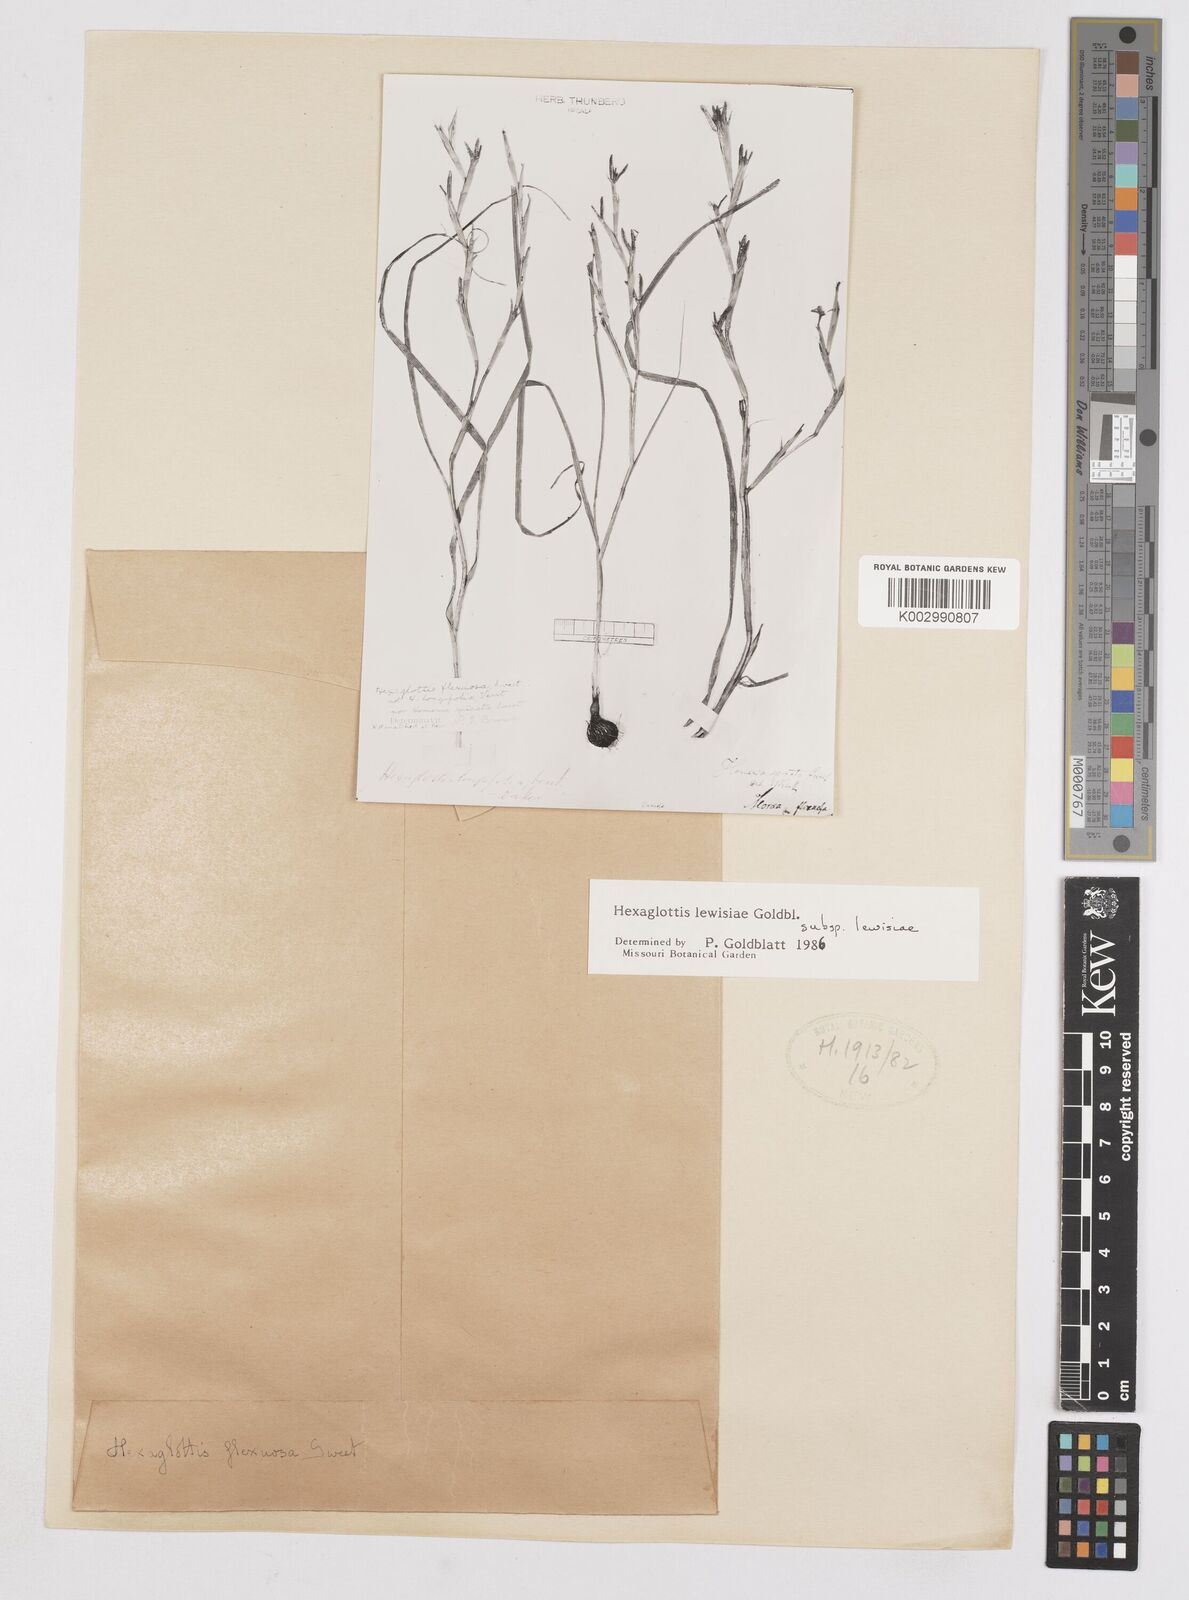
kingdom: Plantae
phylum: Tracheophyta
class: Liliopsida
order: Asparagales
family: Iridaceae
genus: Moraea
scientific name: Moraea lewisiae
